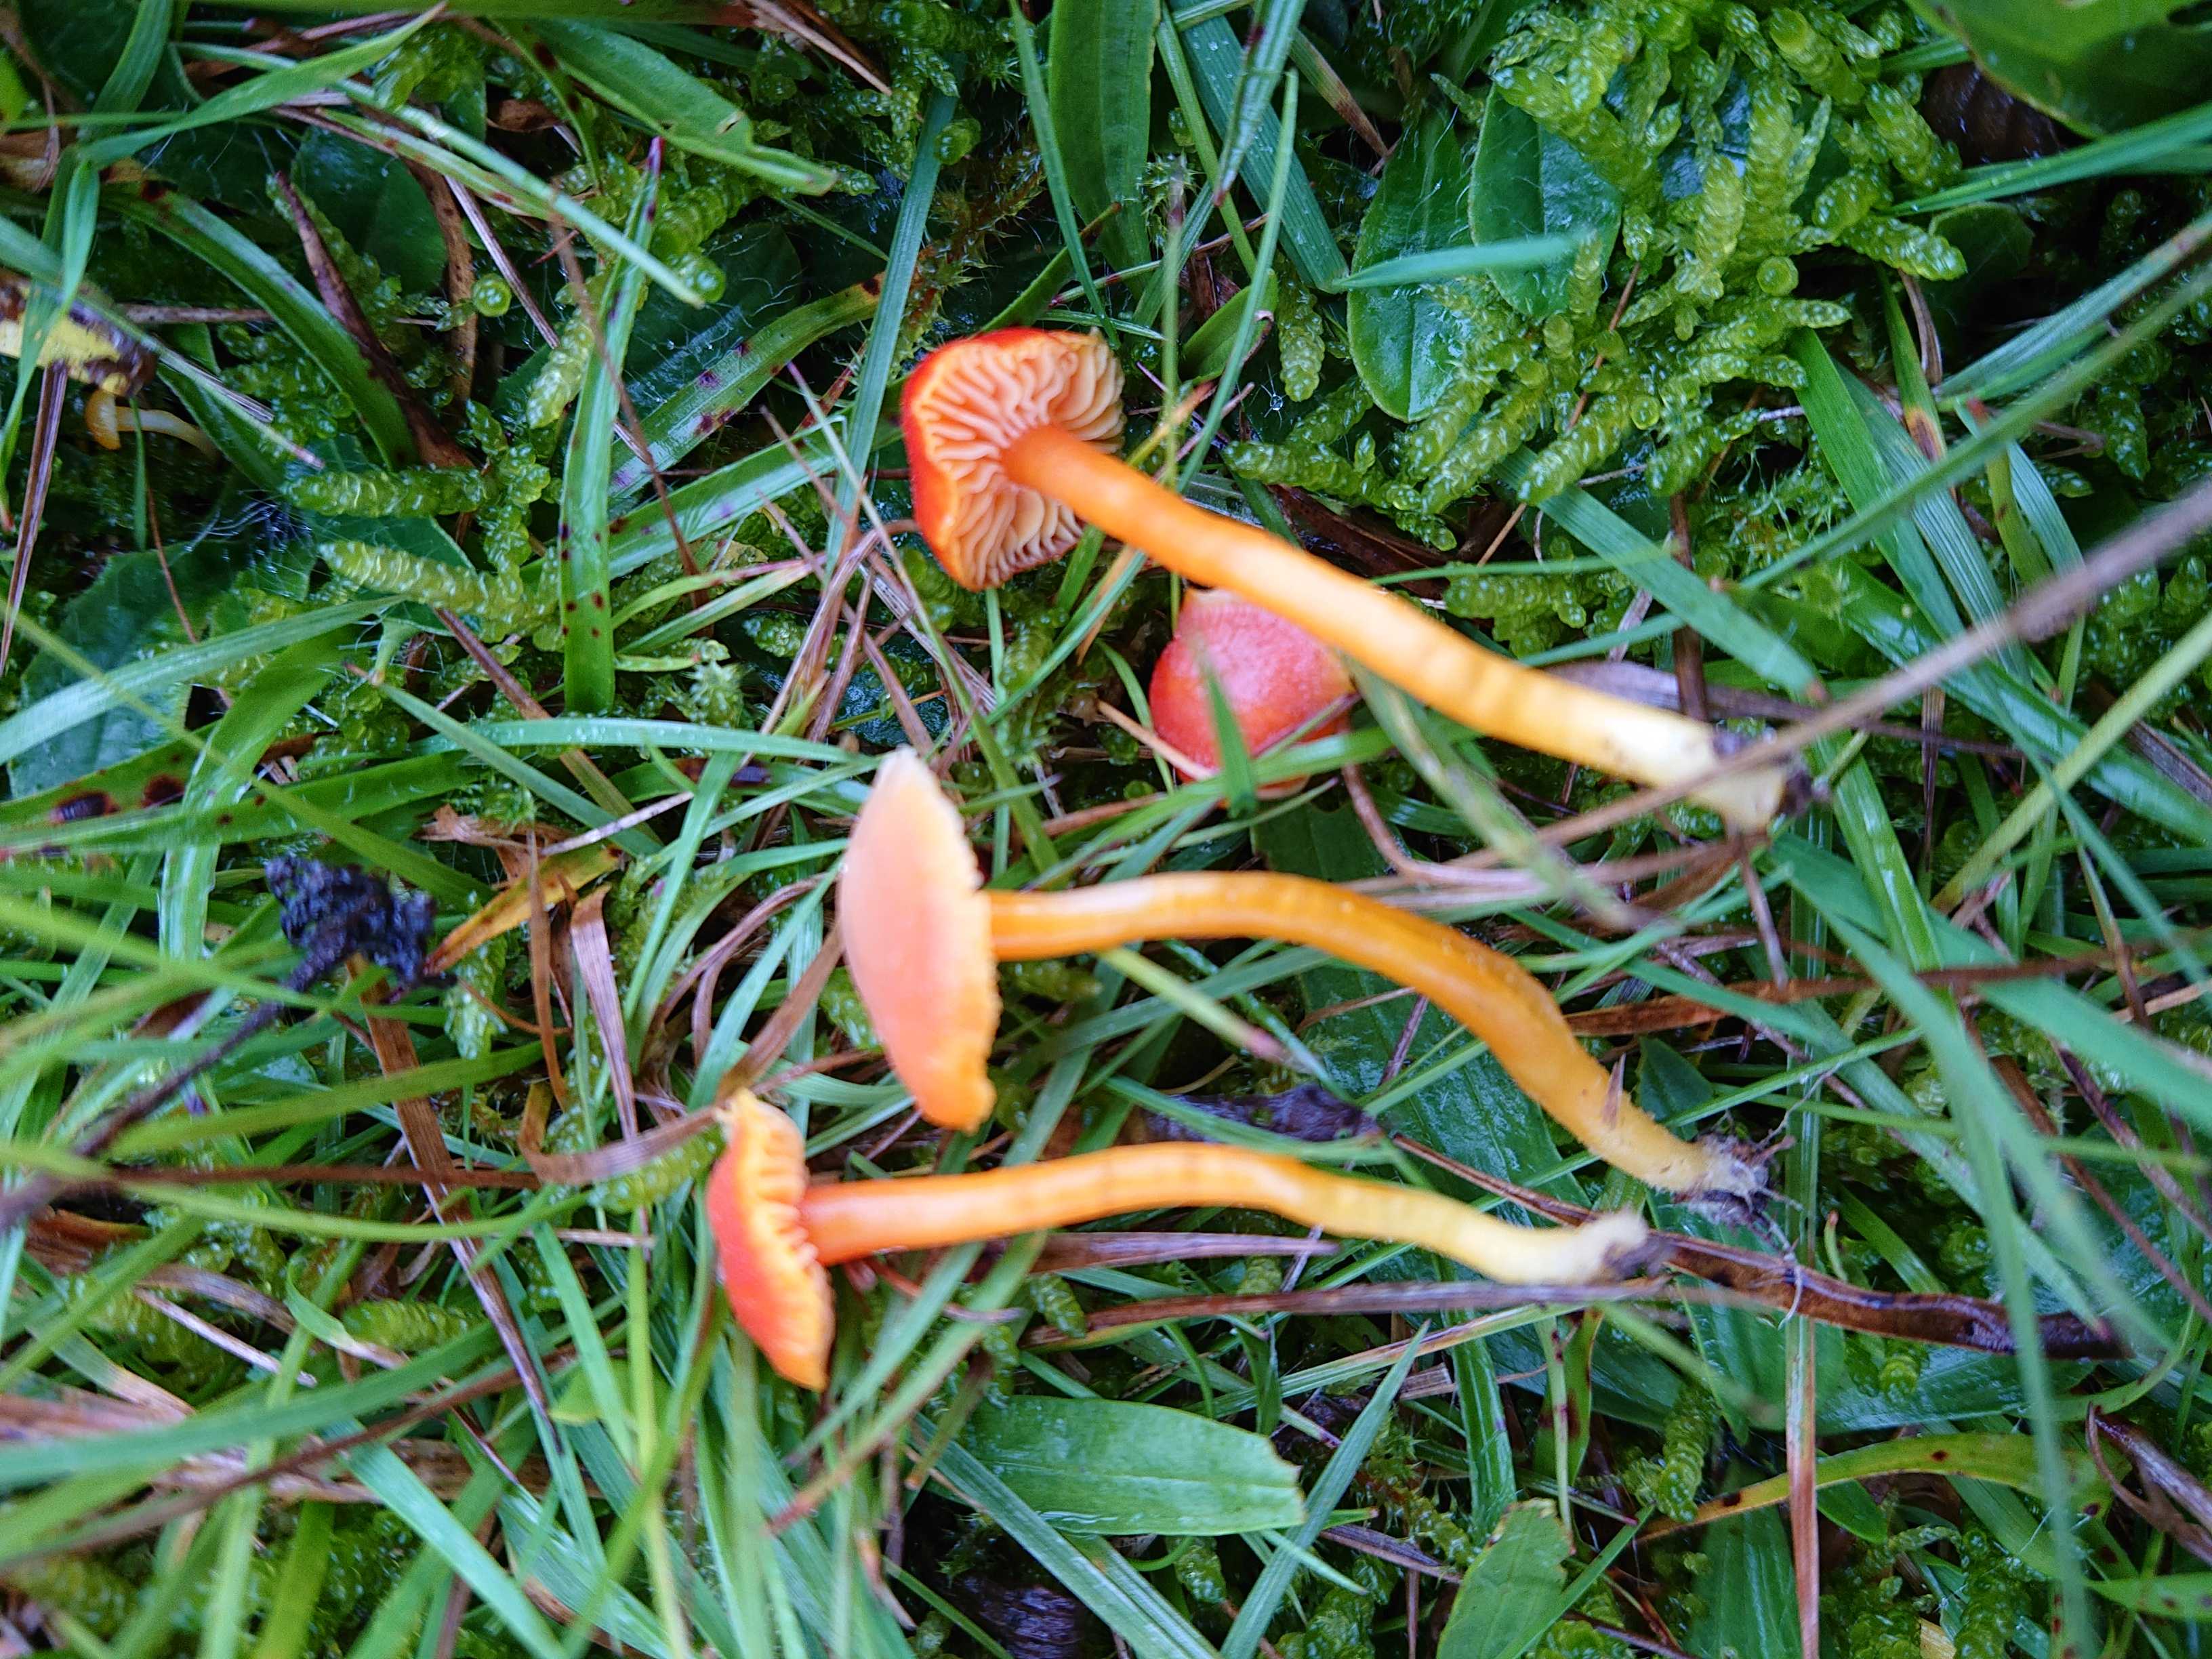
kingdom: Fungi
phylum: Basidiomycota
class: Agaricomycetes
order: Agaricales
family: Hygrophoraceae
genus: Hygrocybe
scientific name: Hygrocybe miniata
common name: mønje-vokshat
